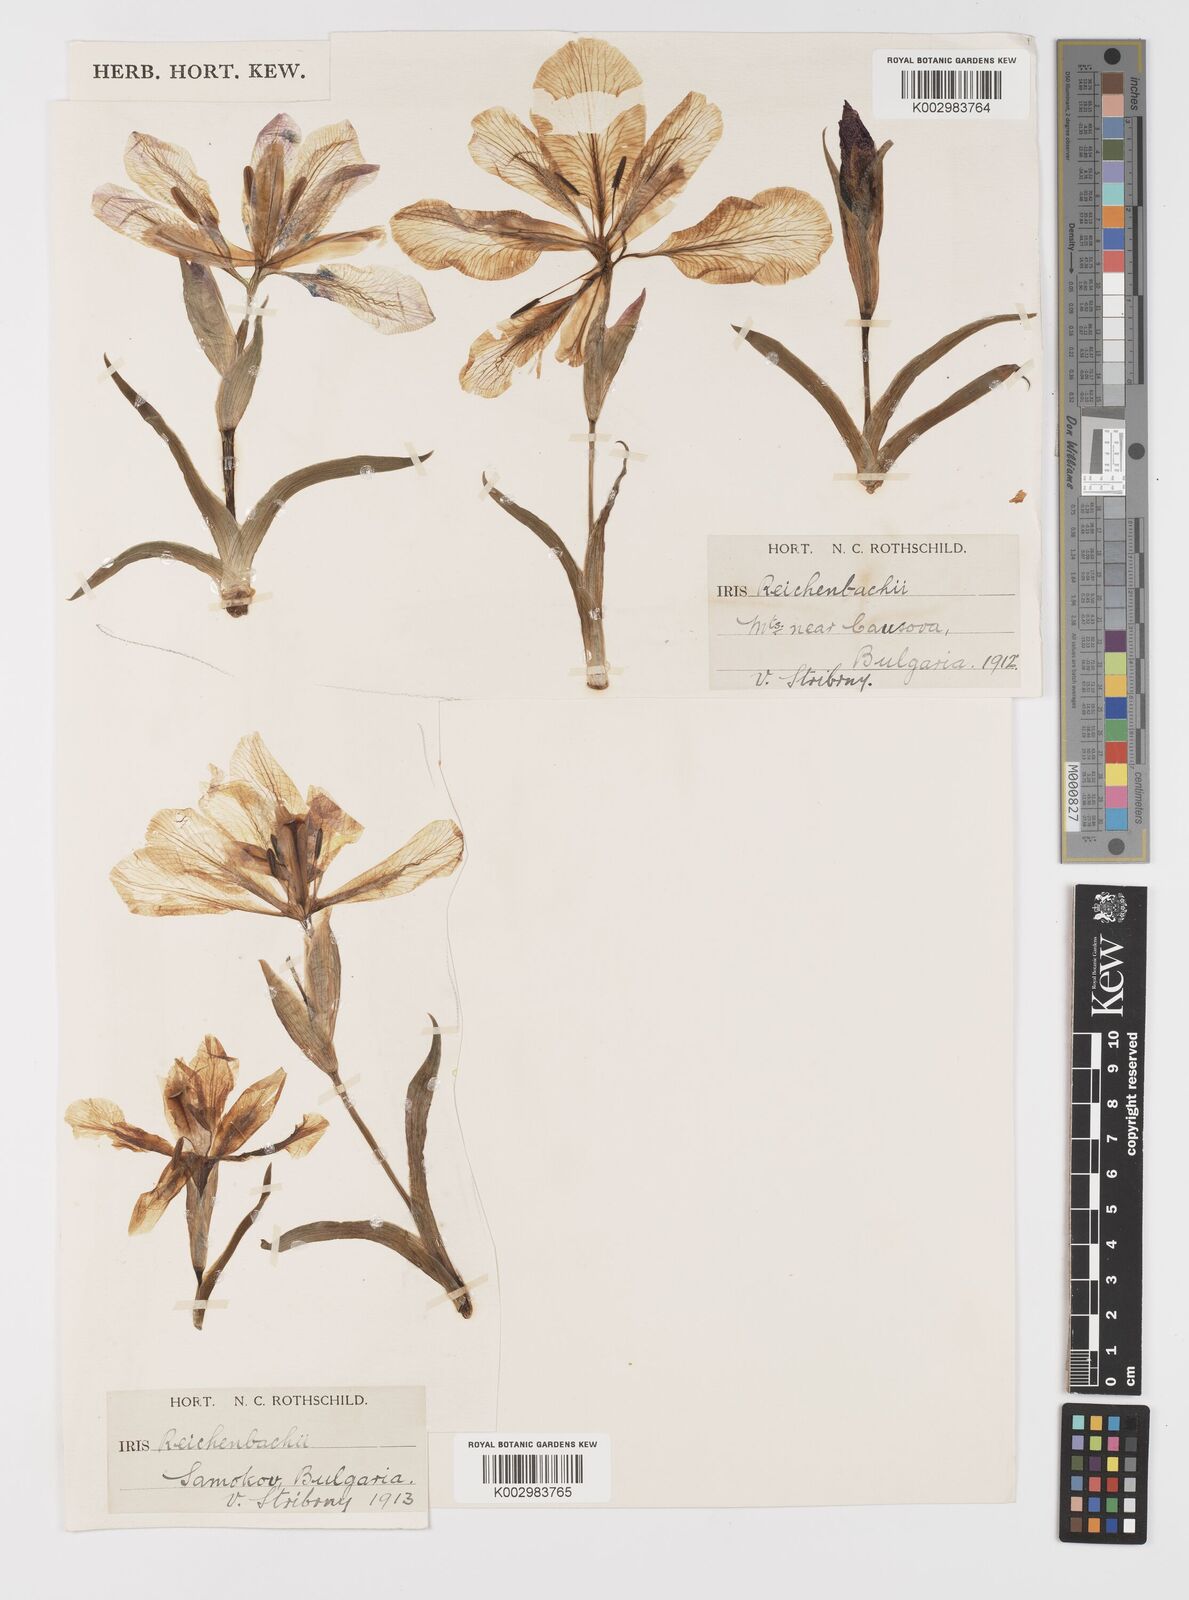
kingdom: Plantae
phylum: Tracheophyta
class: Liliopsida
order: Asparagales
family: Iridaceae
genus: Iris
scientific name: Iris reichenbachii
